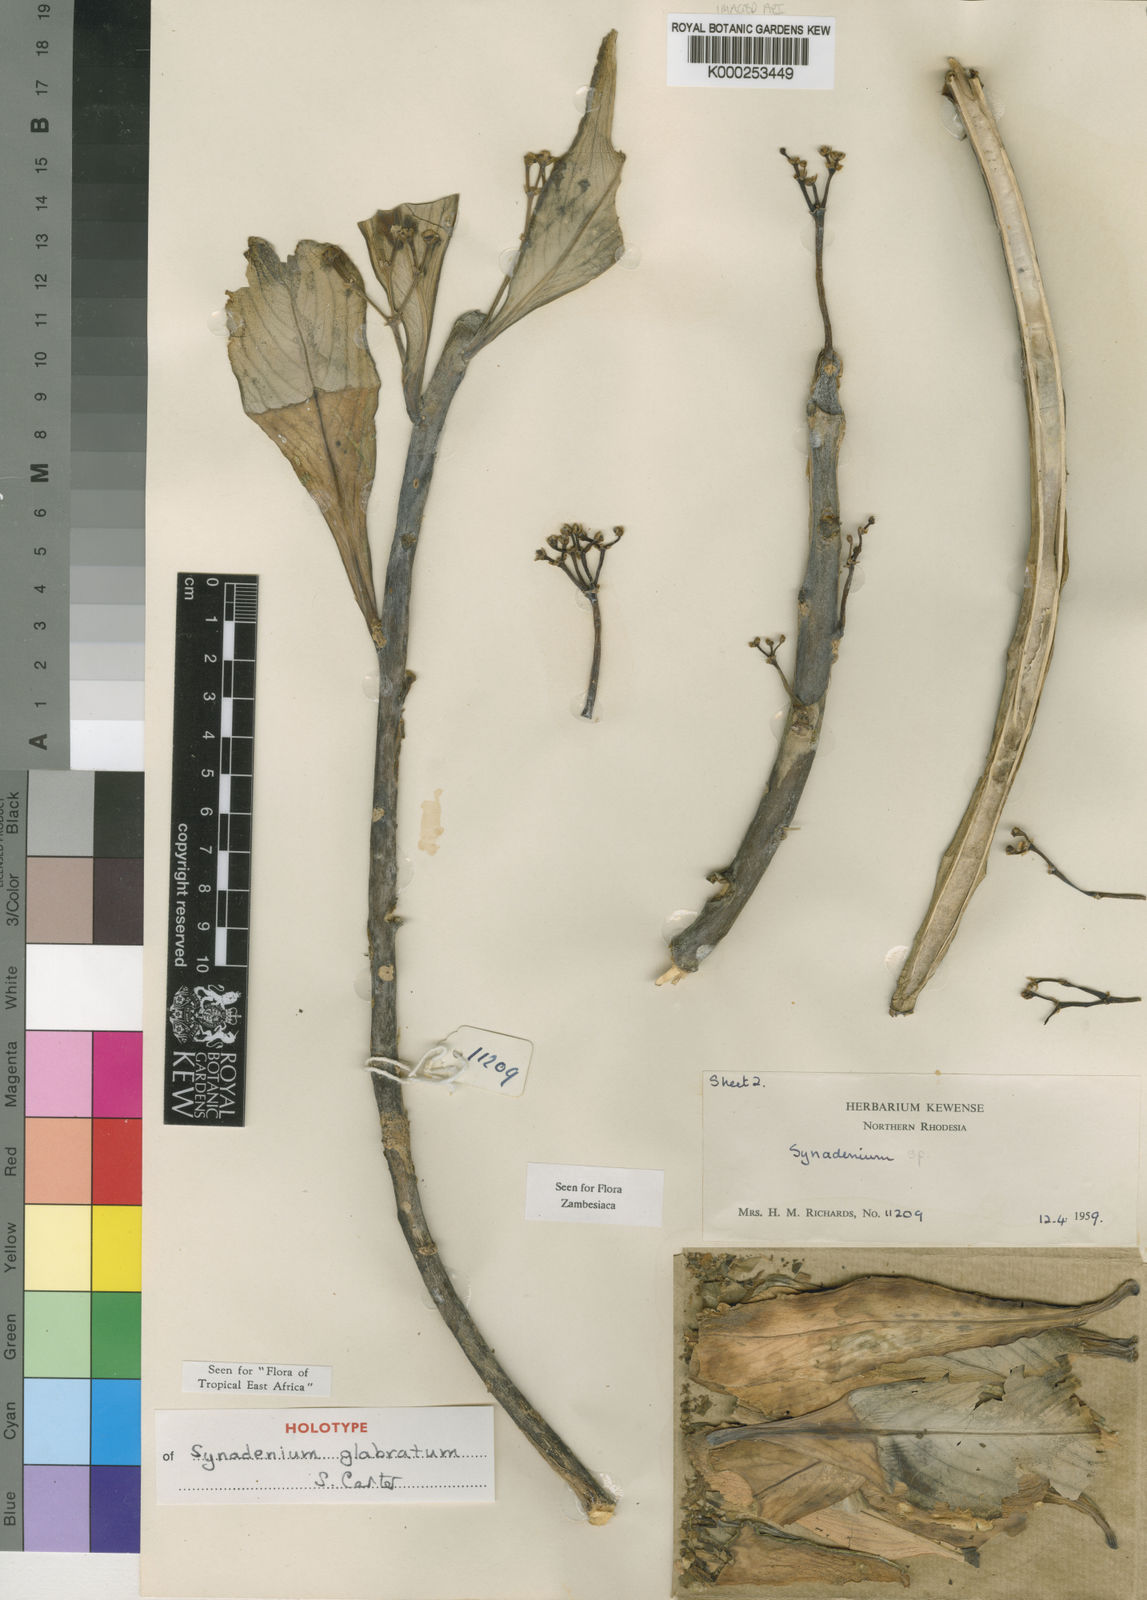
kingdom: Plantae
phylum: Tracheophyta
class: Magnoliopsida
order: Malpighiales
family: Euphorbiaceae
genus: Euphorbia
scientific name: Euphorbia neoglabrata
